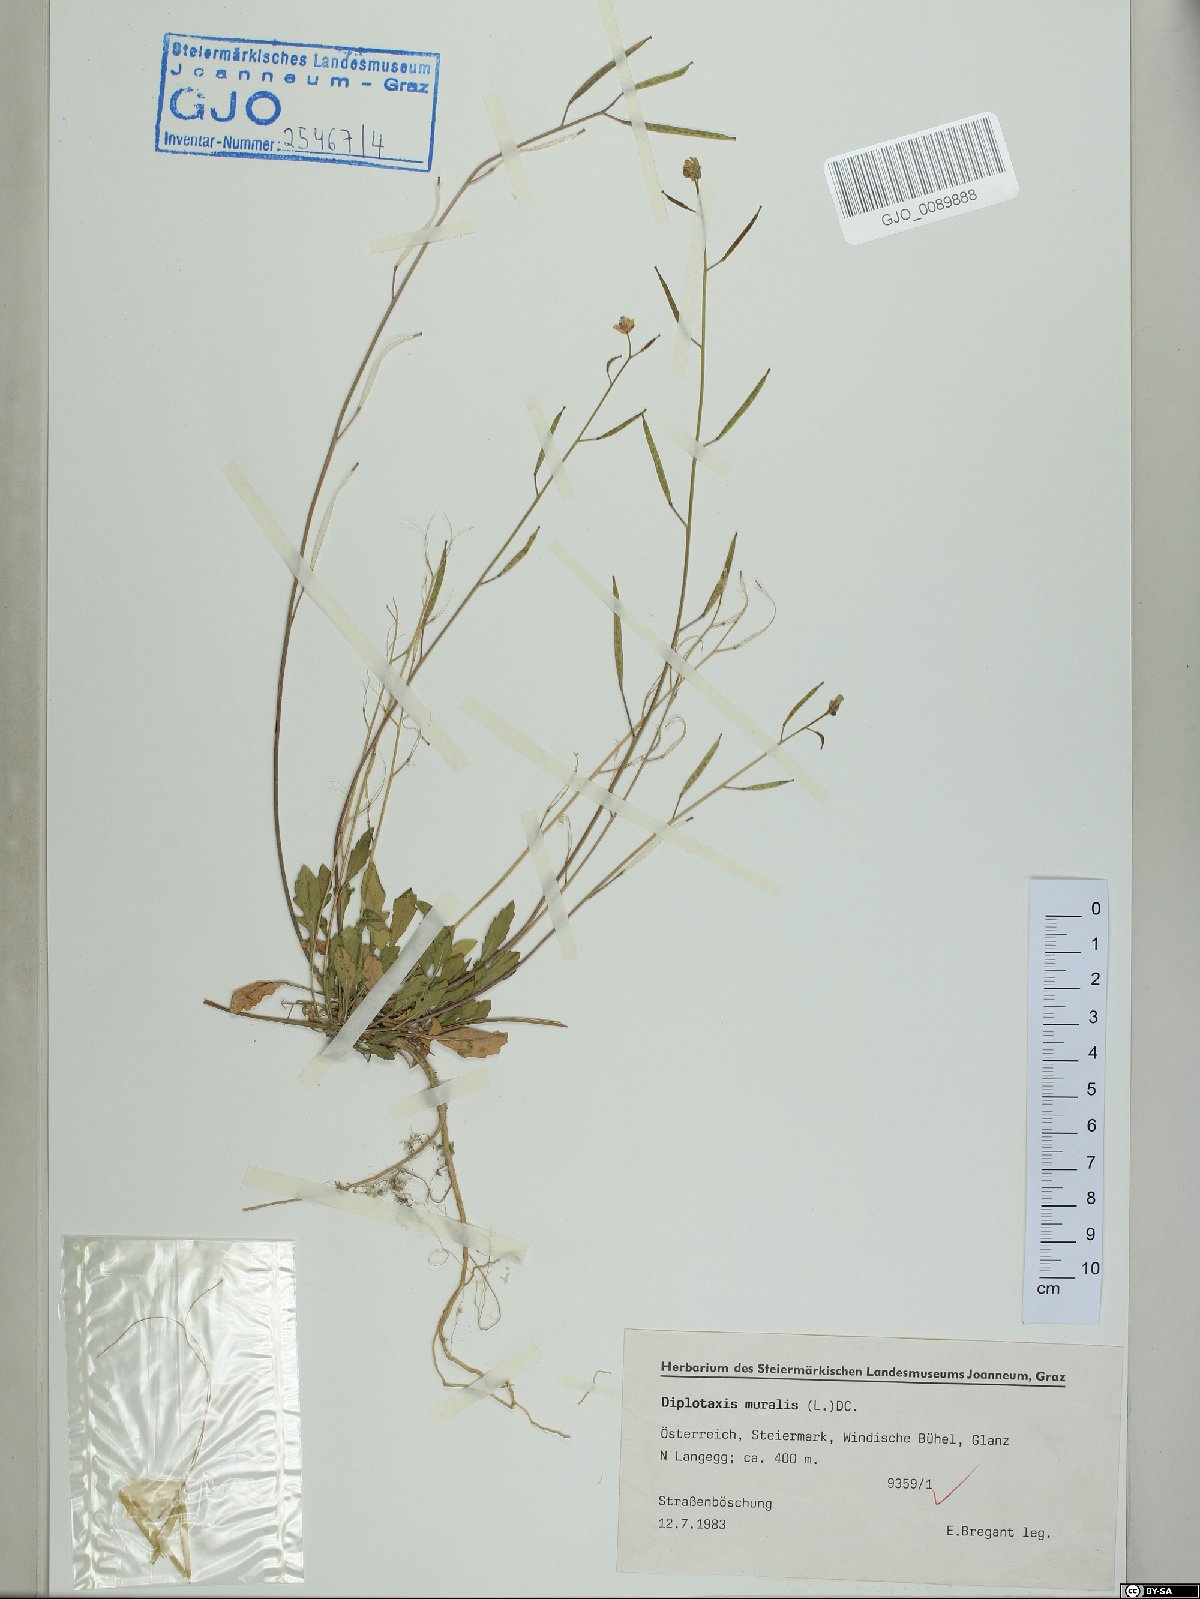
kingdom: Plantae
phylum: Tracheophyta
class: Magnoliopsida
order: Brassicales
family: Brassicaceae
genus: Diplotaxis
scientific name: Diplotaxis muralis
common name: Annual wall-rocket
